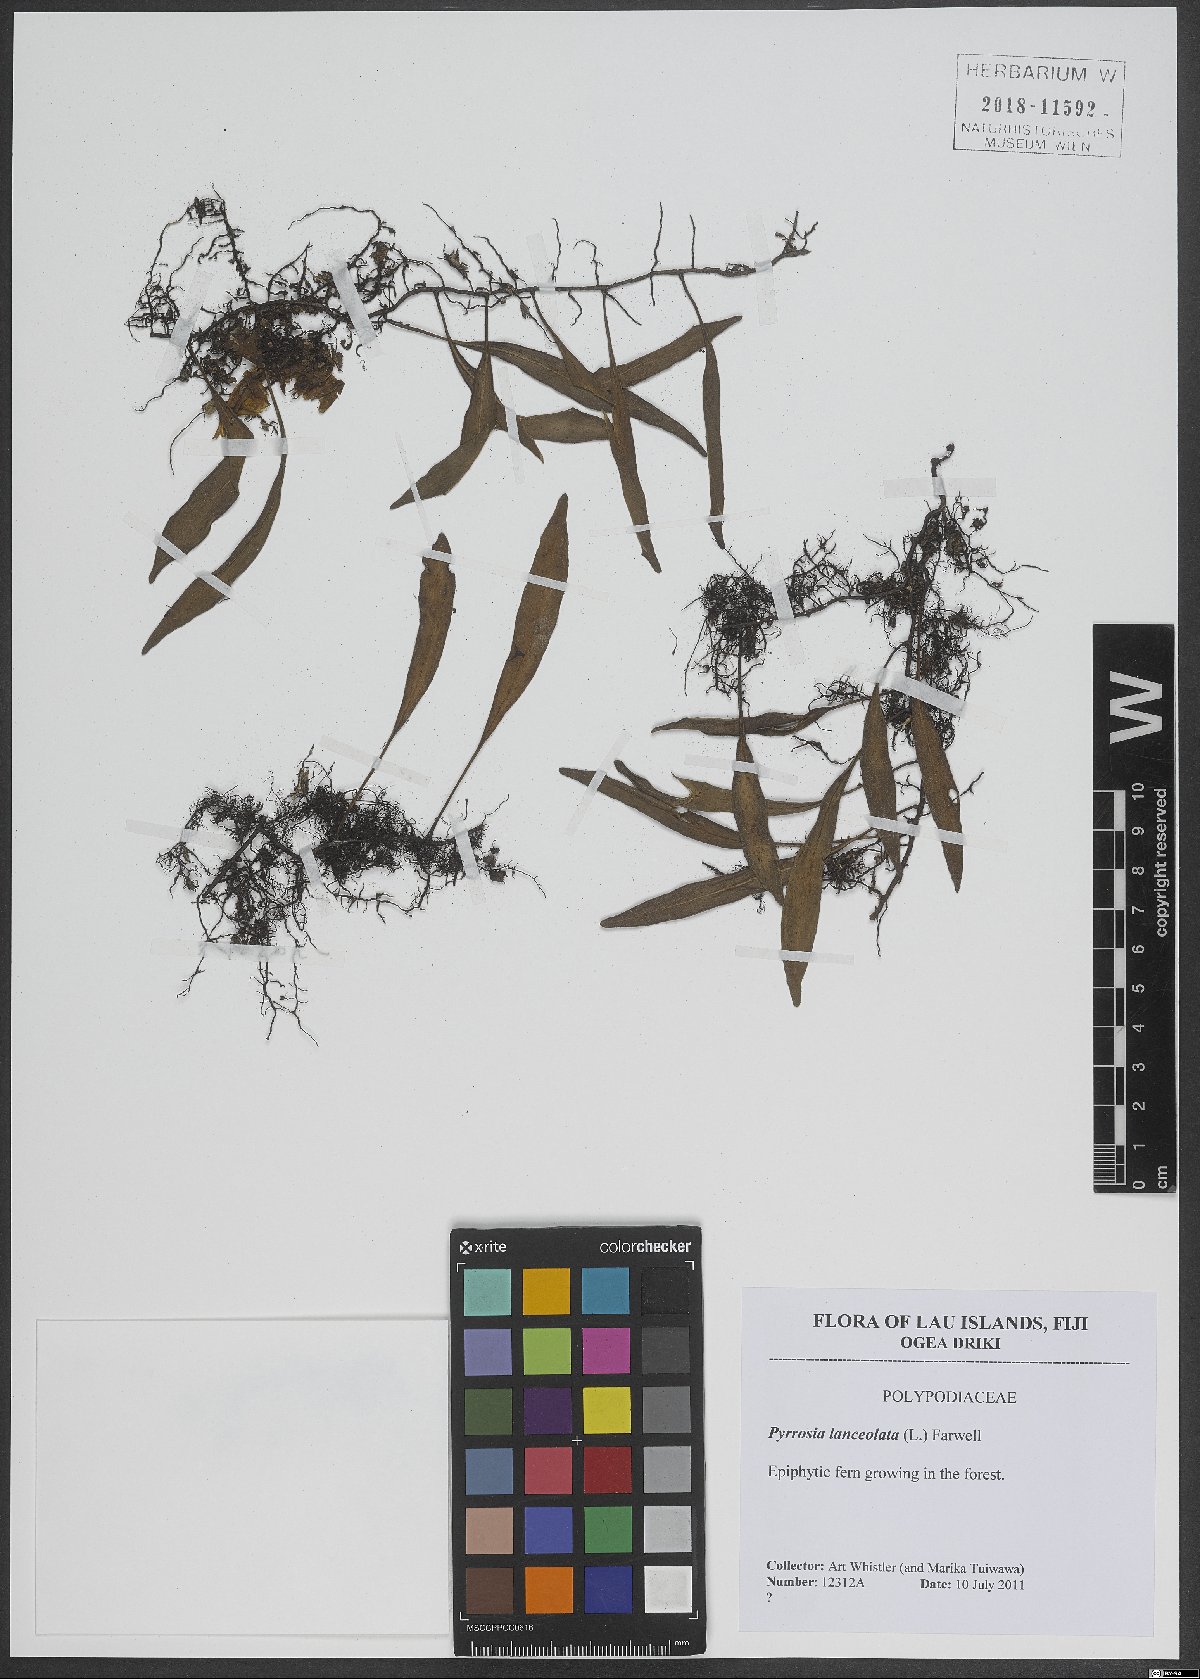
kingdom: Plantae
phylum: Tracheophyta
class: Polypodiopsida
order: Polypodiales
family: Polypodiaceae
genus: Pyrrosia
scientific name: Pyrrosia lanceolata
